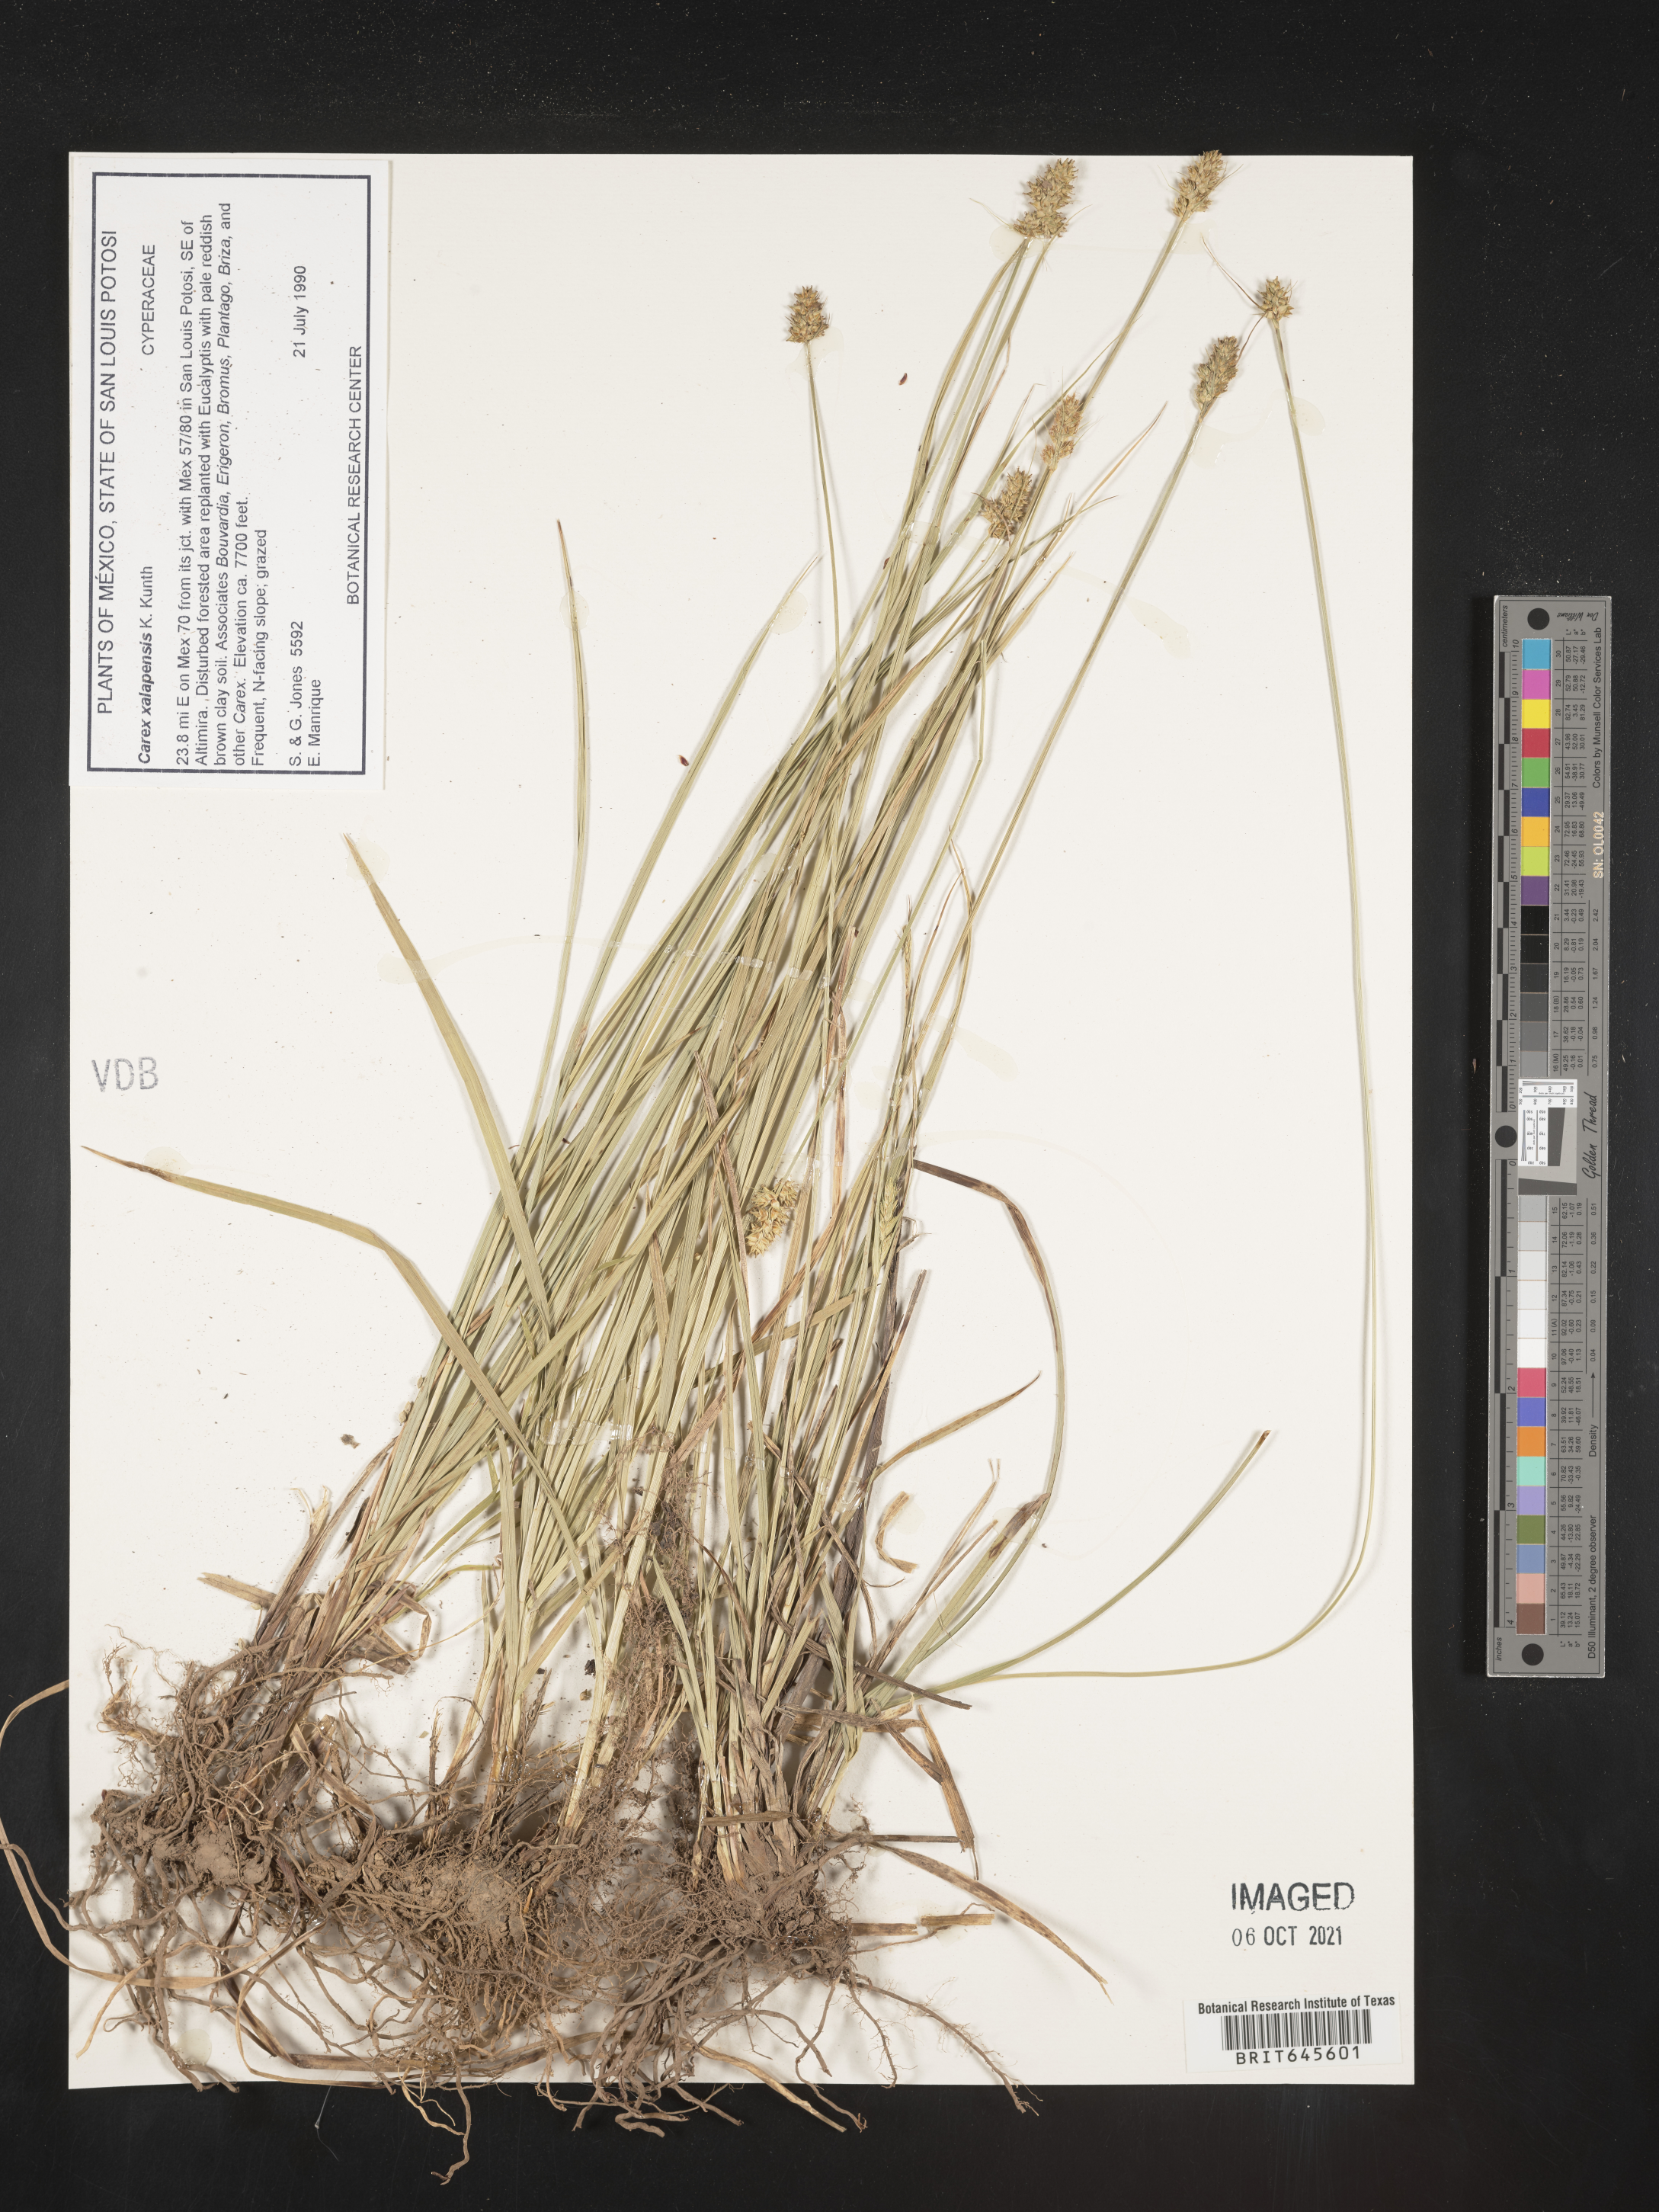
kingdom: Plantae
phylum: Tracheophyta
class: Liliopsida
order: Poales
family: Cyperaceae
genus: Carex
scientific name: Carex
